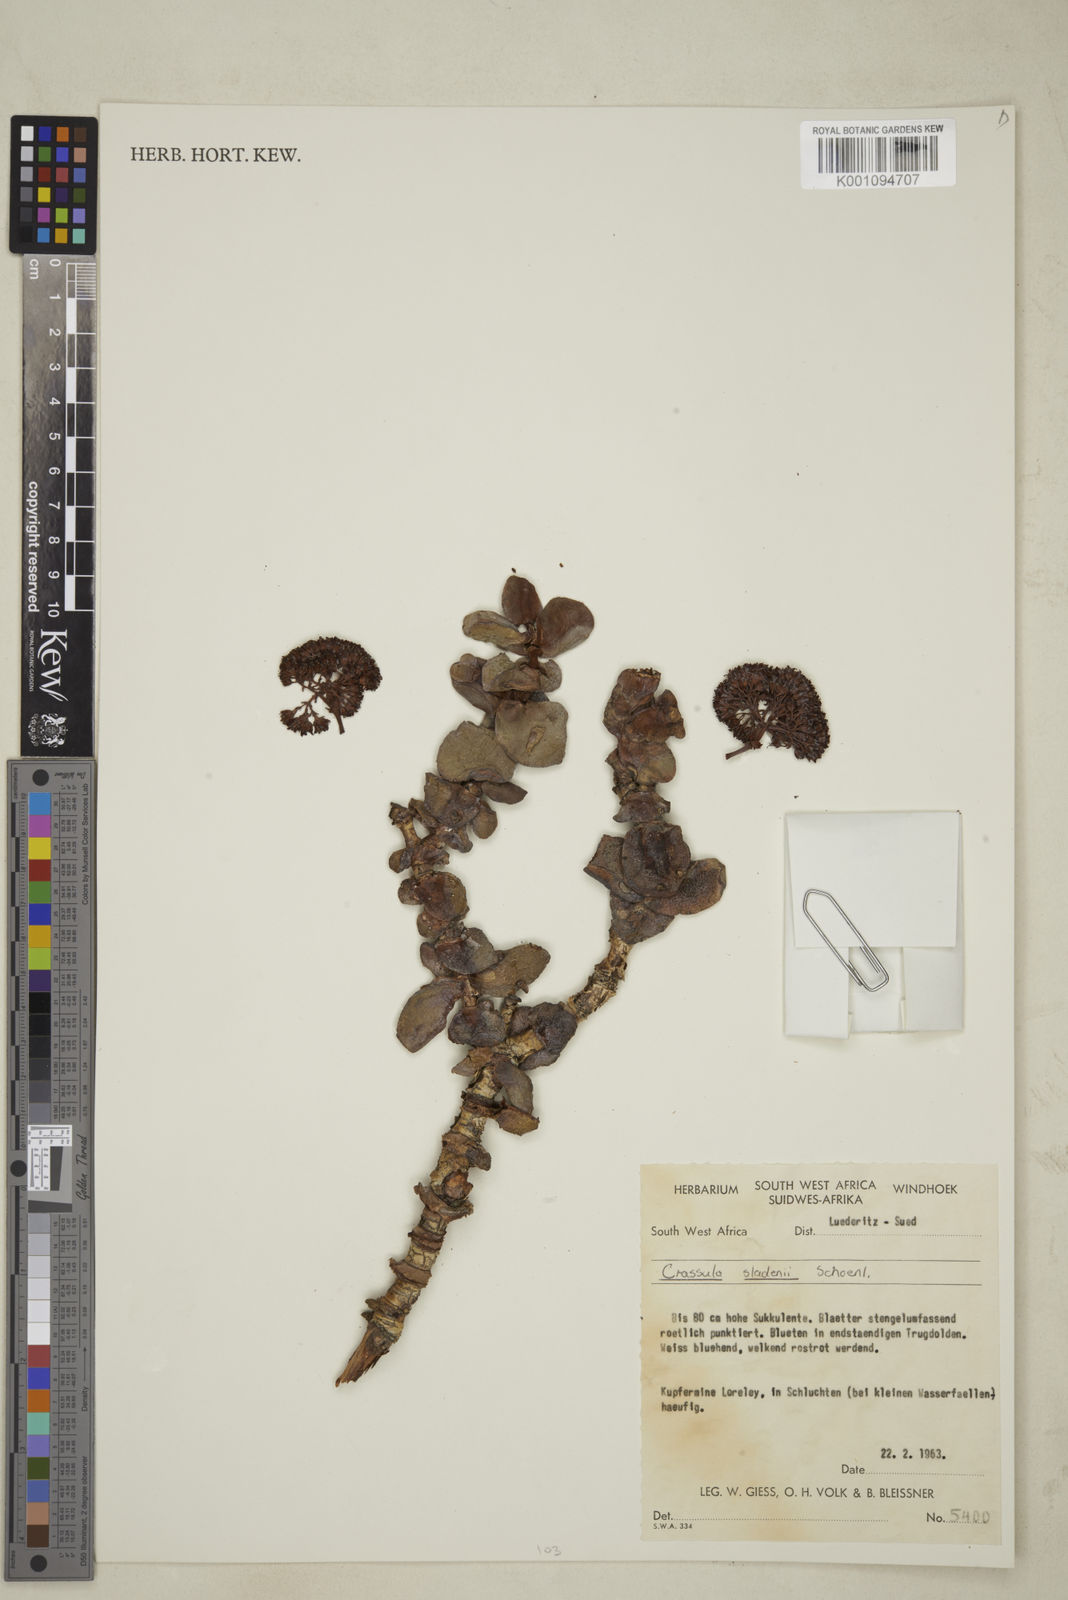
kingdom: Plantae
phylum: Tracheophyta
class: Magnoliopsida
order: Saxifragales
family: Crassulaceae
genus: Crassula
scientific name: Crassula
